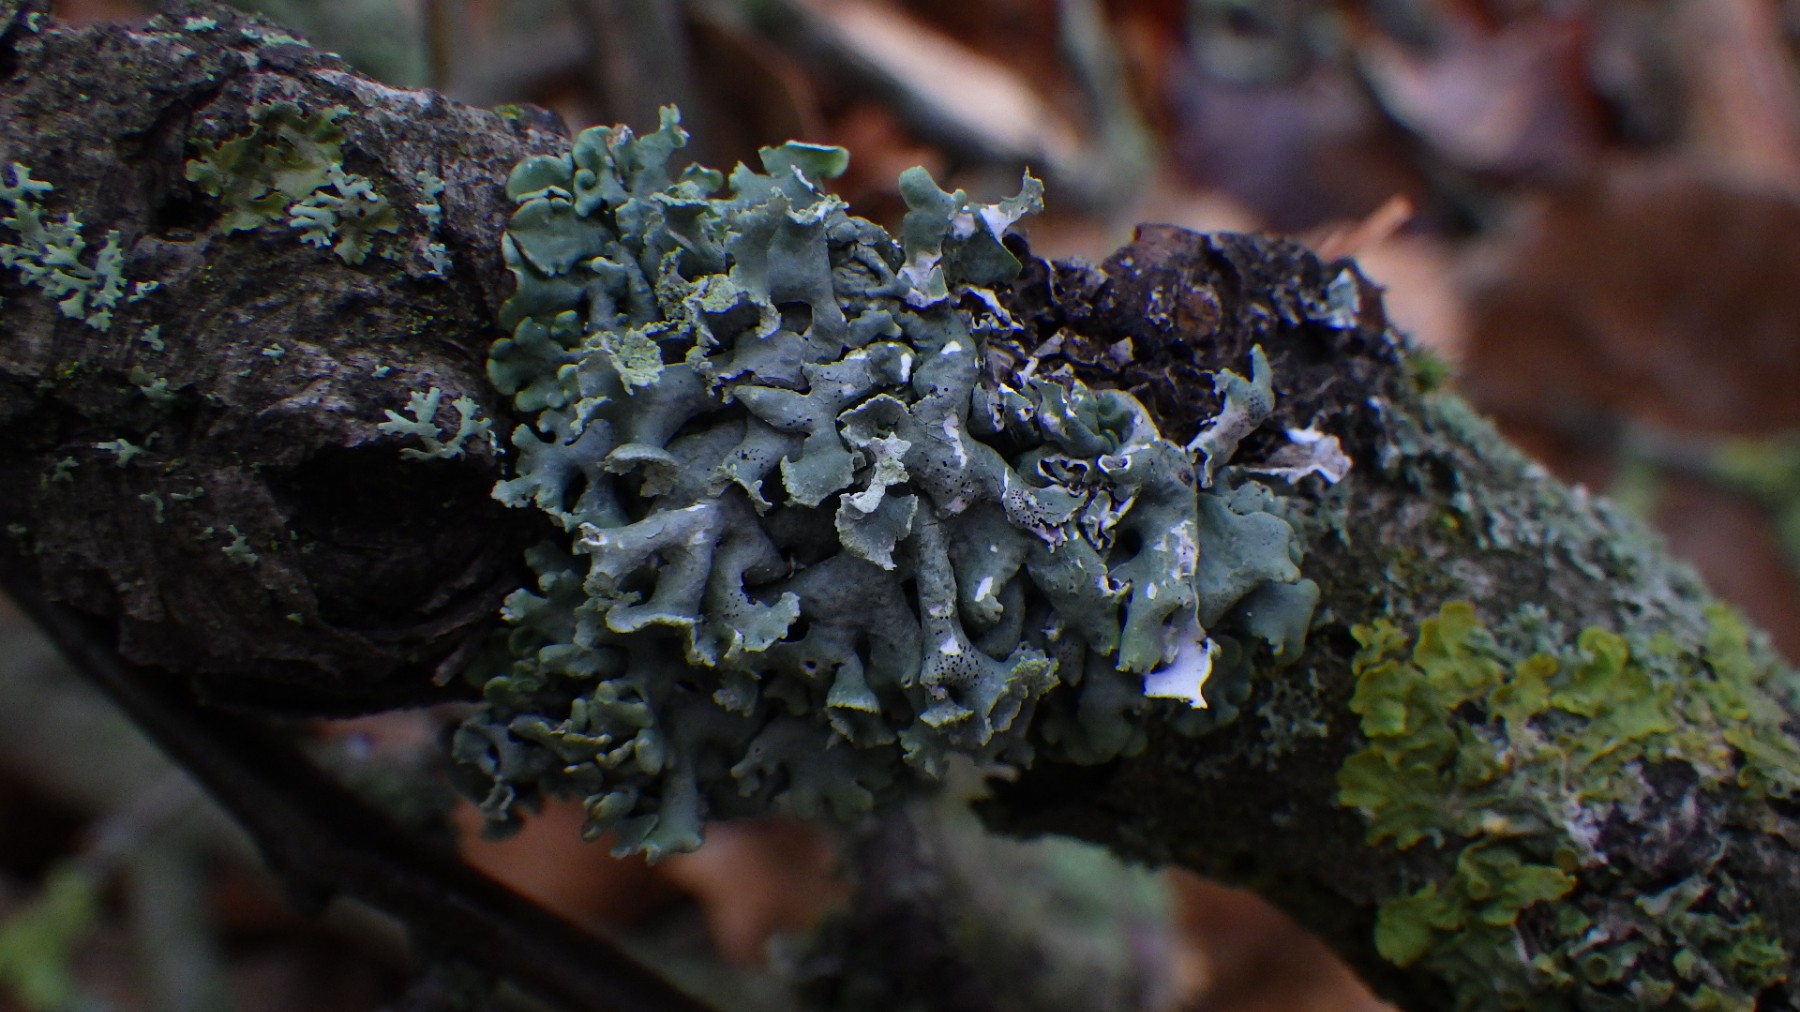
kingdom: Fungi
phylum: Ascomycota
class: Lecanoromycetes
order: Lecanorales
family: Parmeliaceae
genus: Hypogymnia
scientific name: Hypogymnia physodes
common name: almindelig kvistlav
